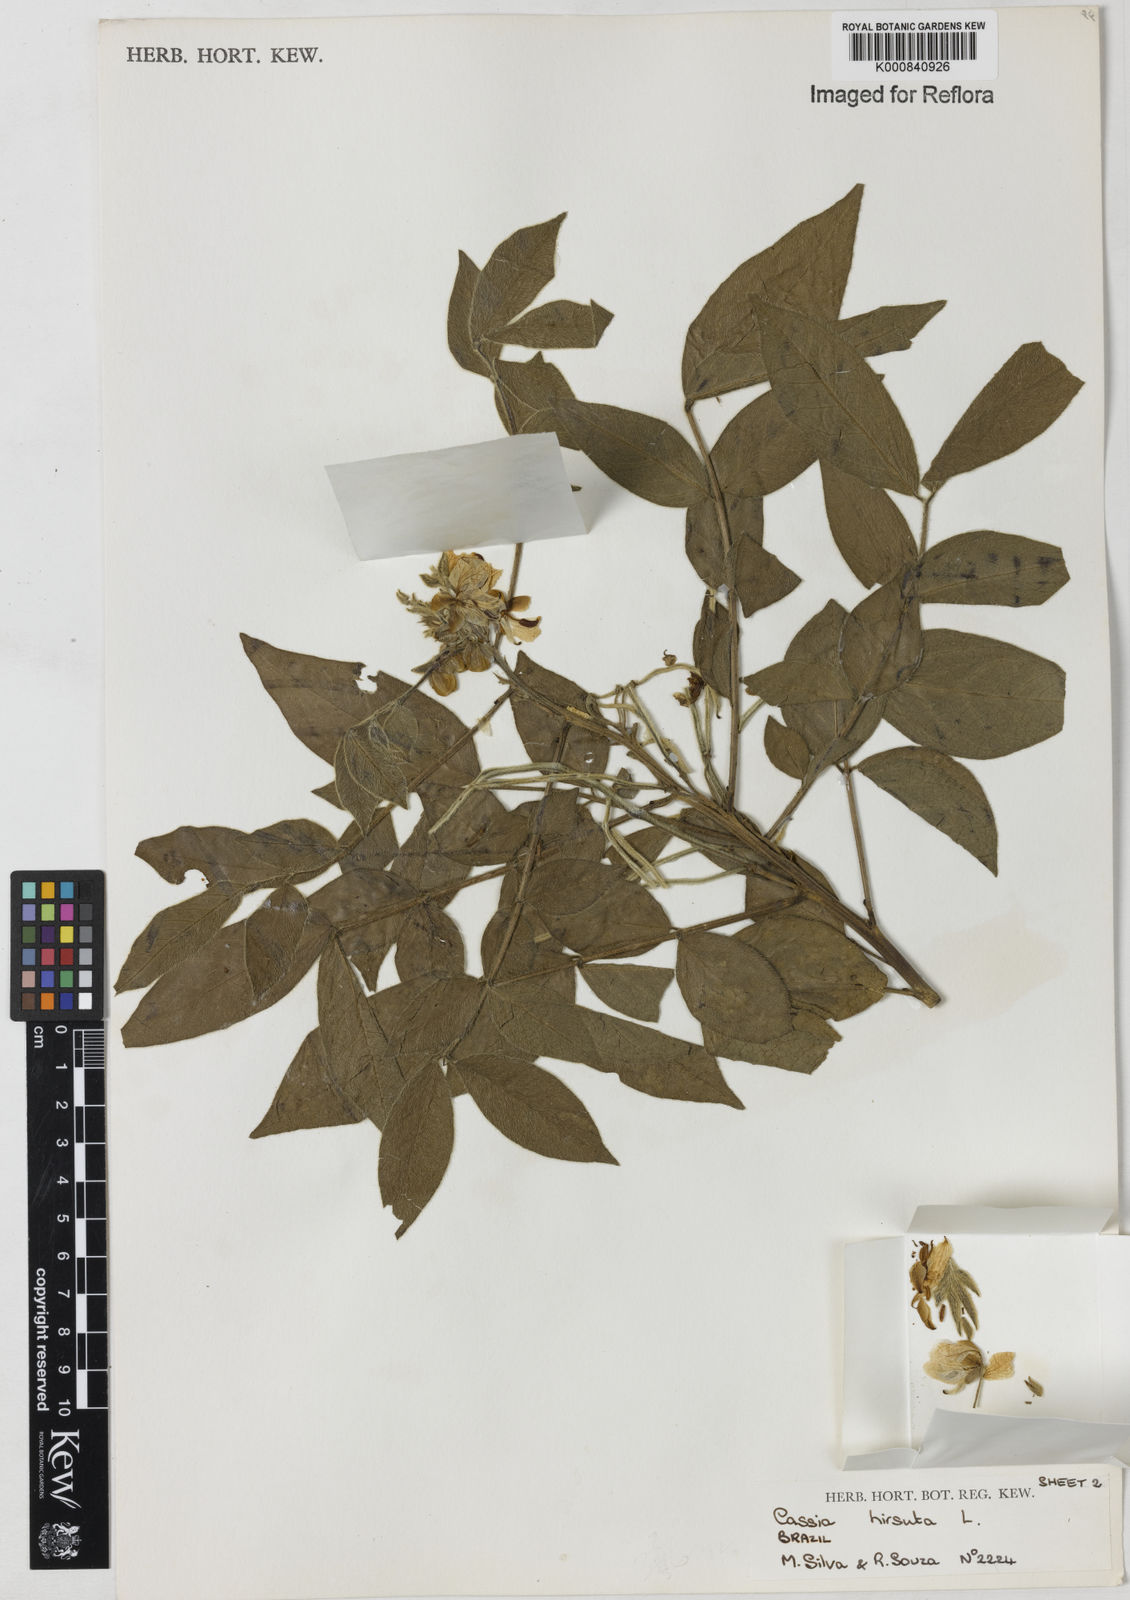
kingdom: Plantae
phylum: Tracheophyta
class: Magnoliopsida
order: Fabales
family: Fabaceae
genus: Senna
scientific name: Senna hirsuta
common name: Woolly senna
